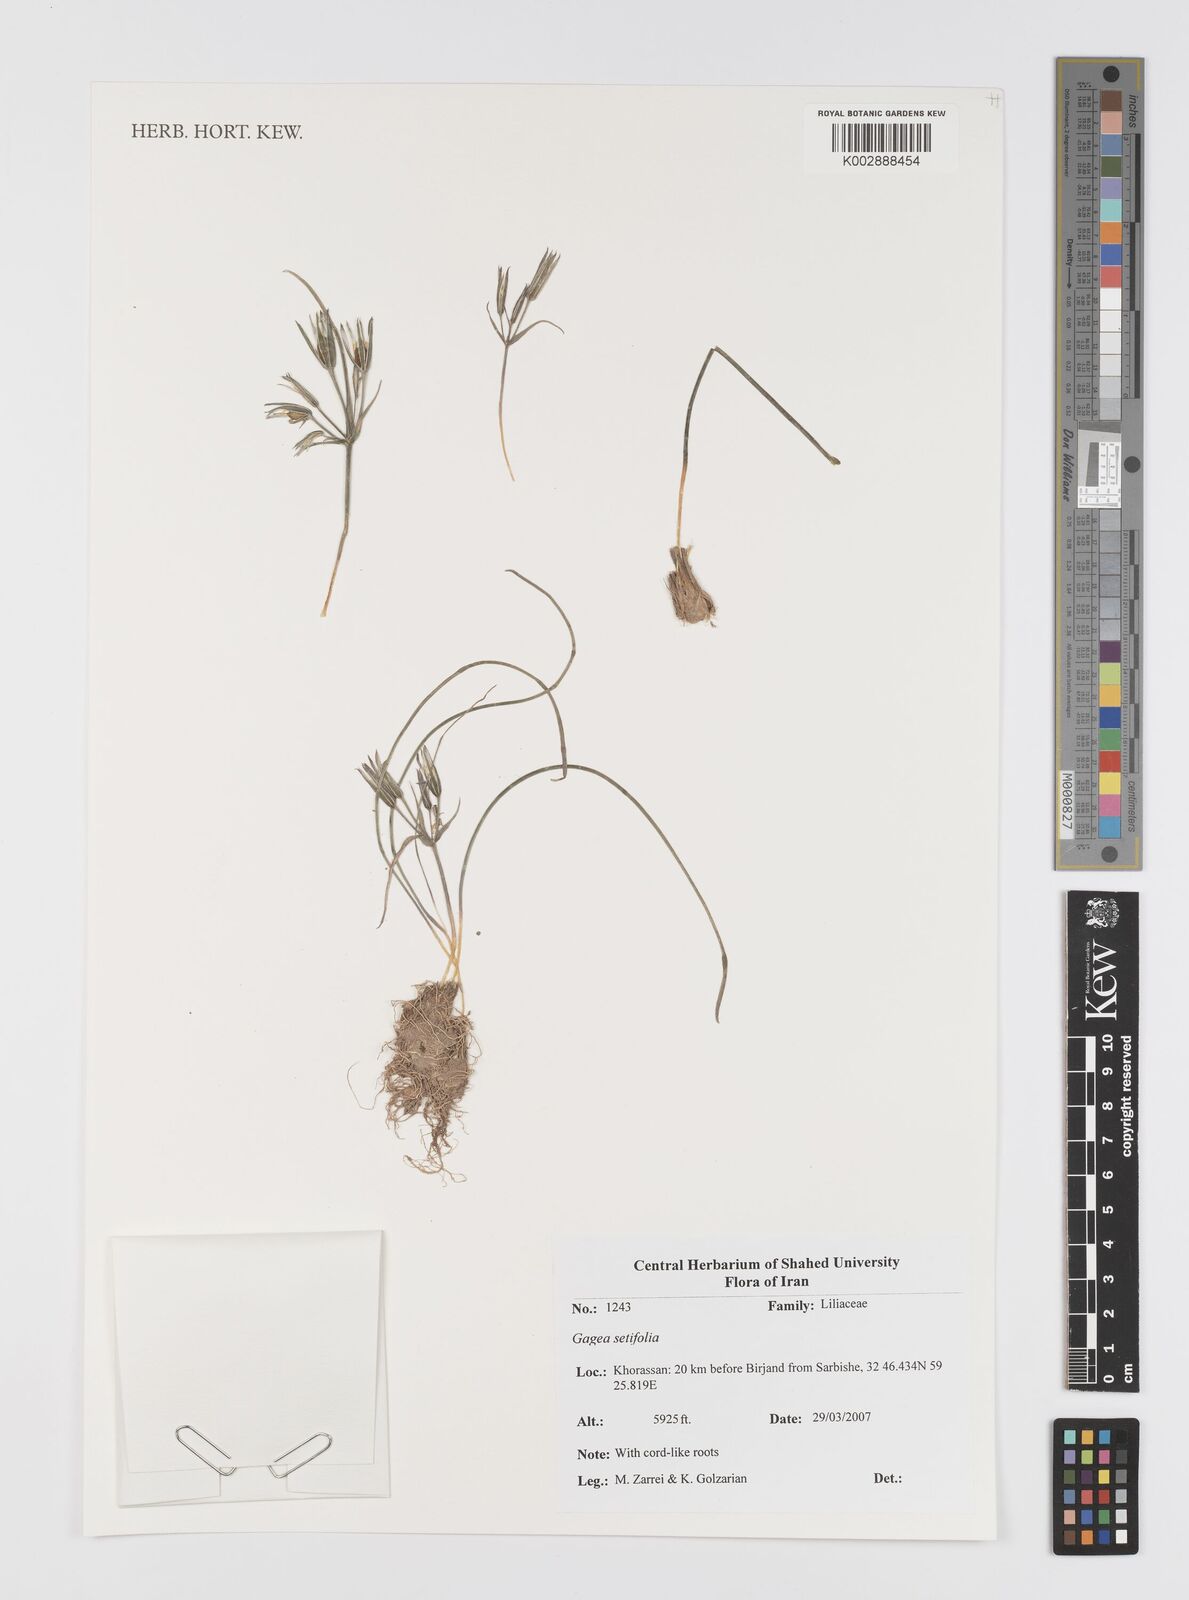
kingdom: Plantae
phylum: Tracheophyta
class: Liliopsida
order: Liliales
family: Liliaceae
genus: Gagea
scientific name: Gagea setifolia
